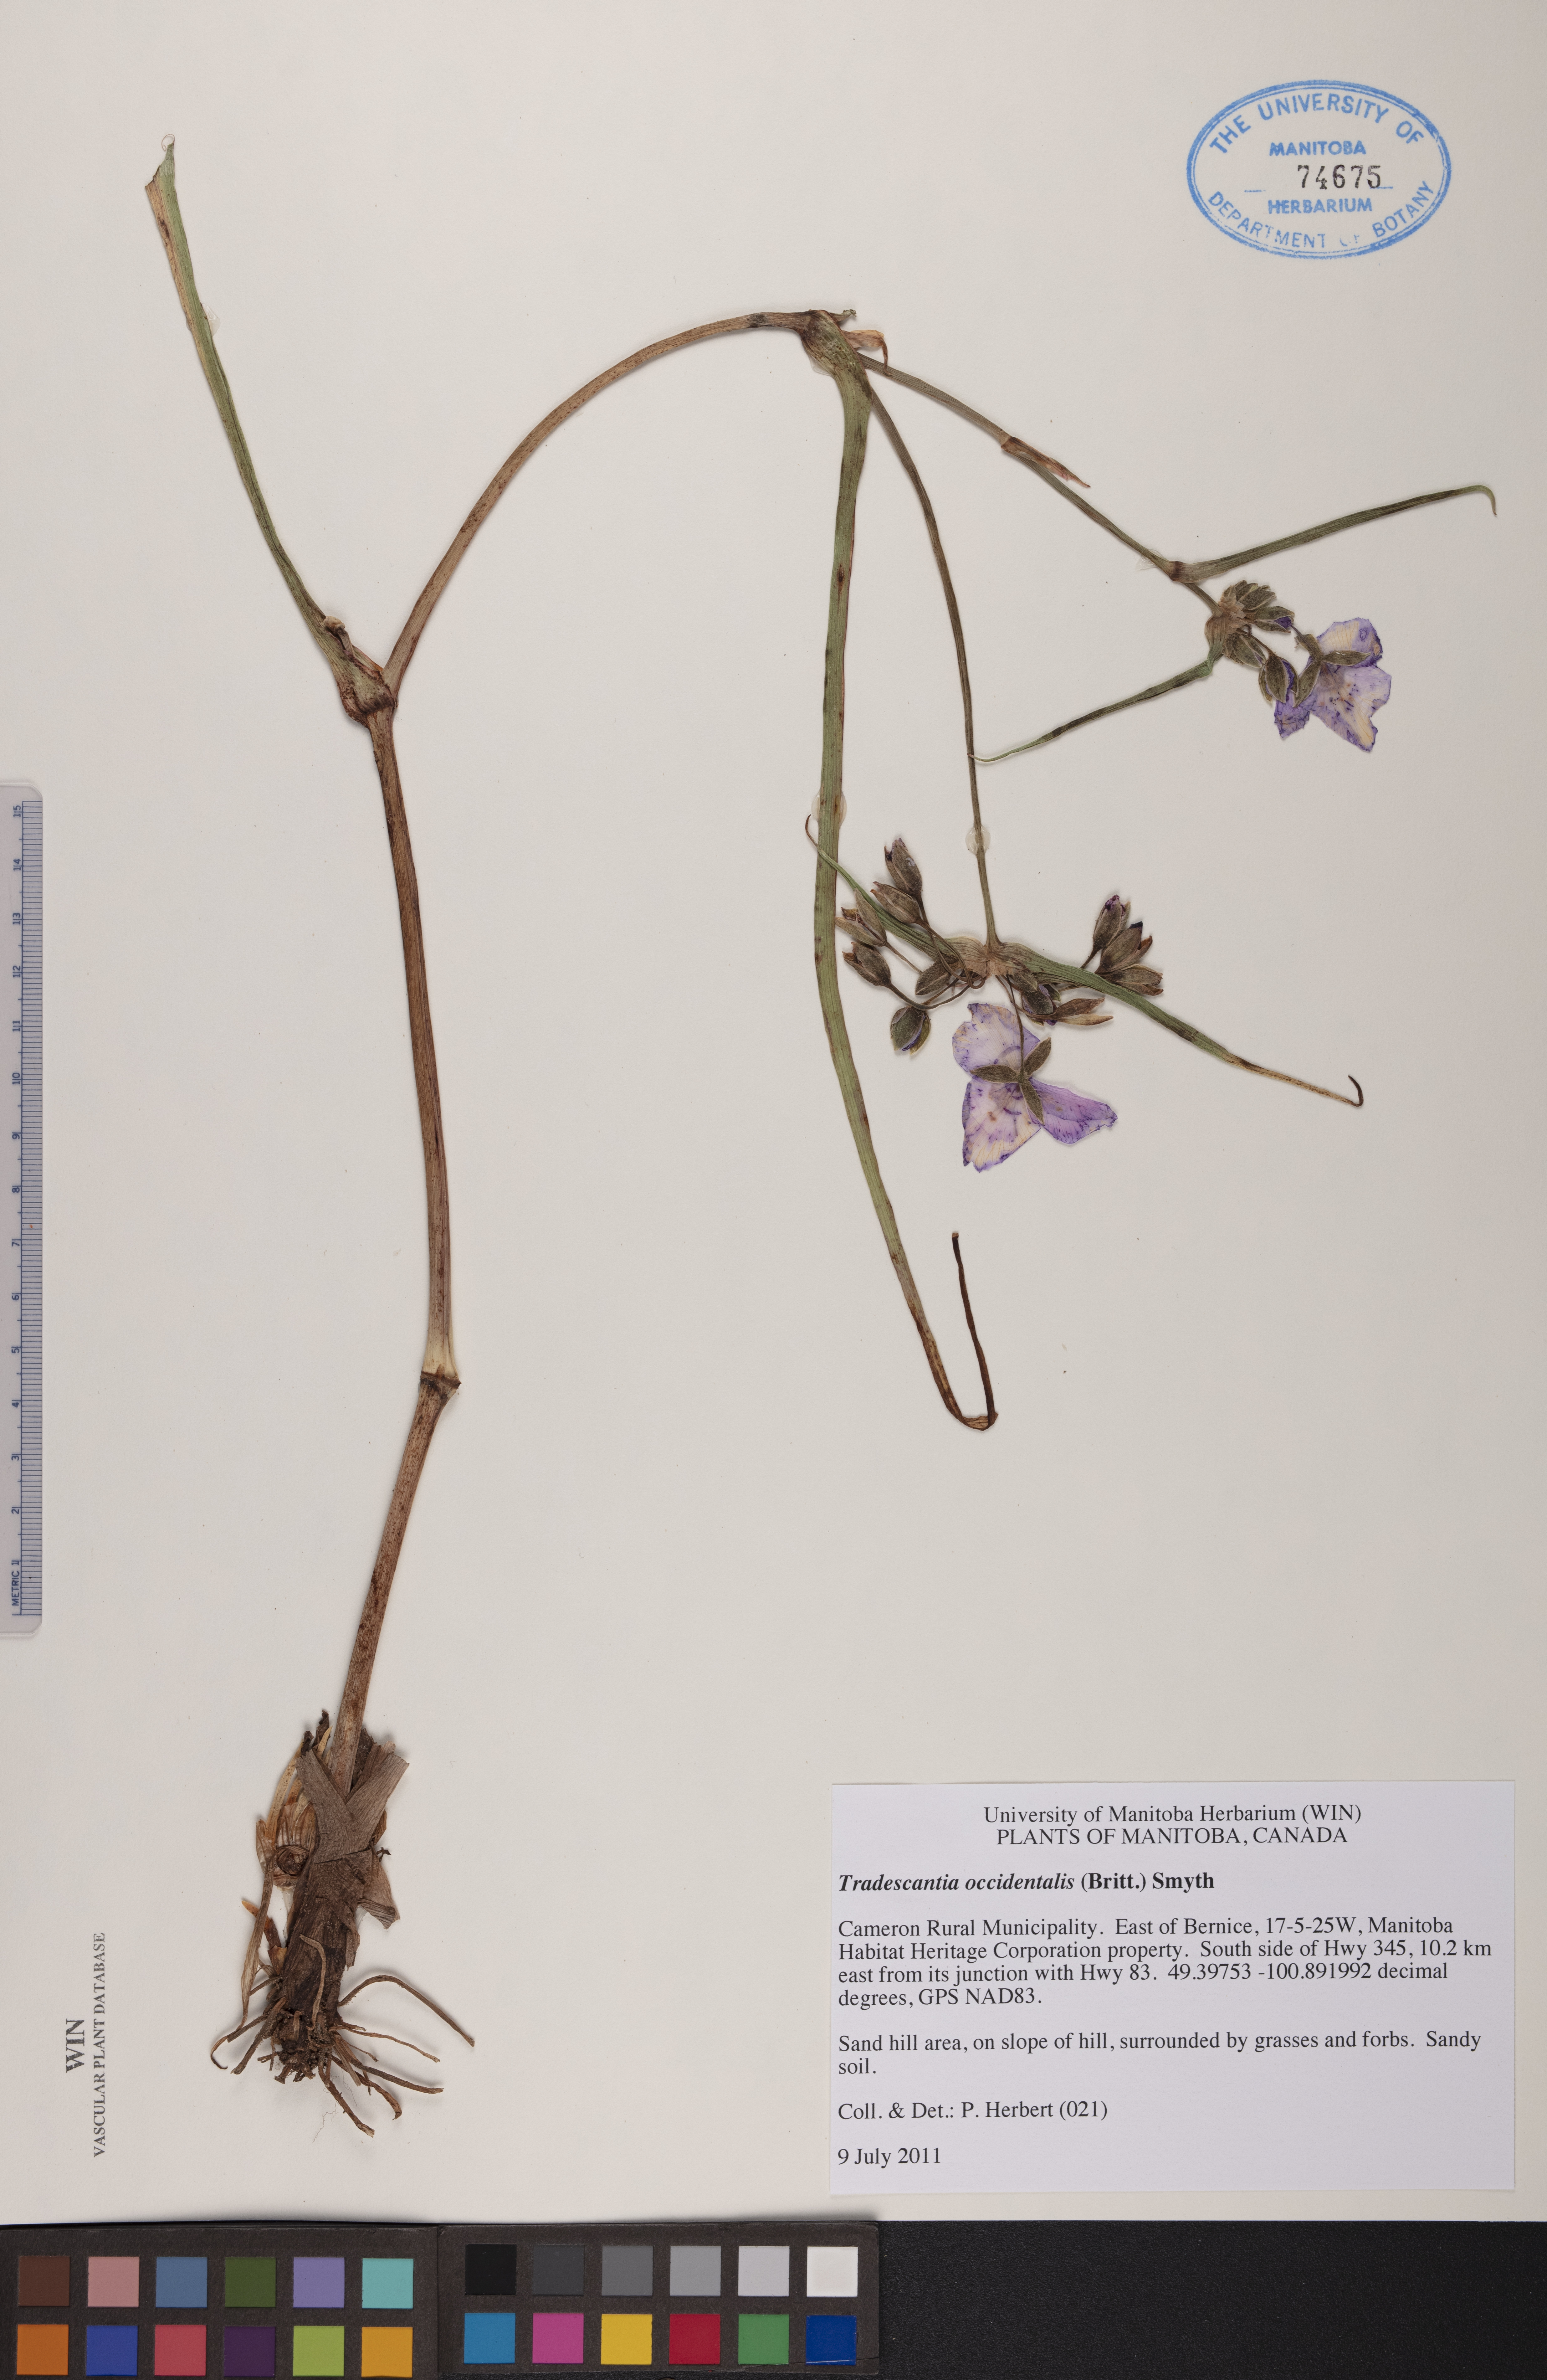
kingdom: Plantae
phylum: Tracheophyta
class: Liliopsida
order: Commelinales
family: Commelinaceae
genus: Tradescantia
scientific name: Tradescantia occidentalis
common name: Prairie spiderwort
